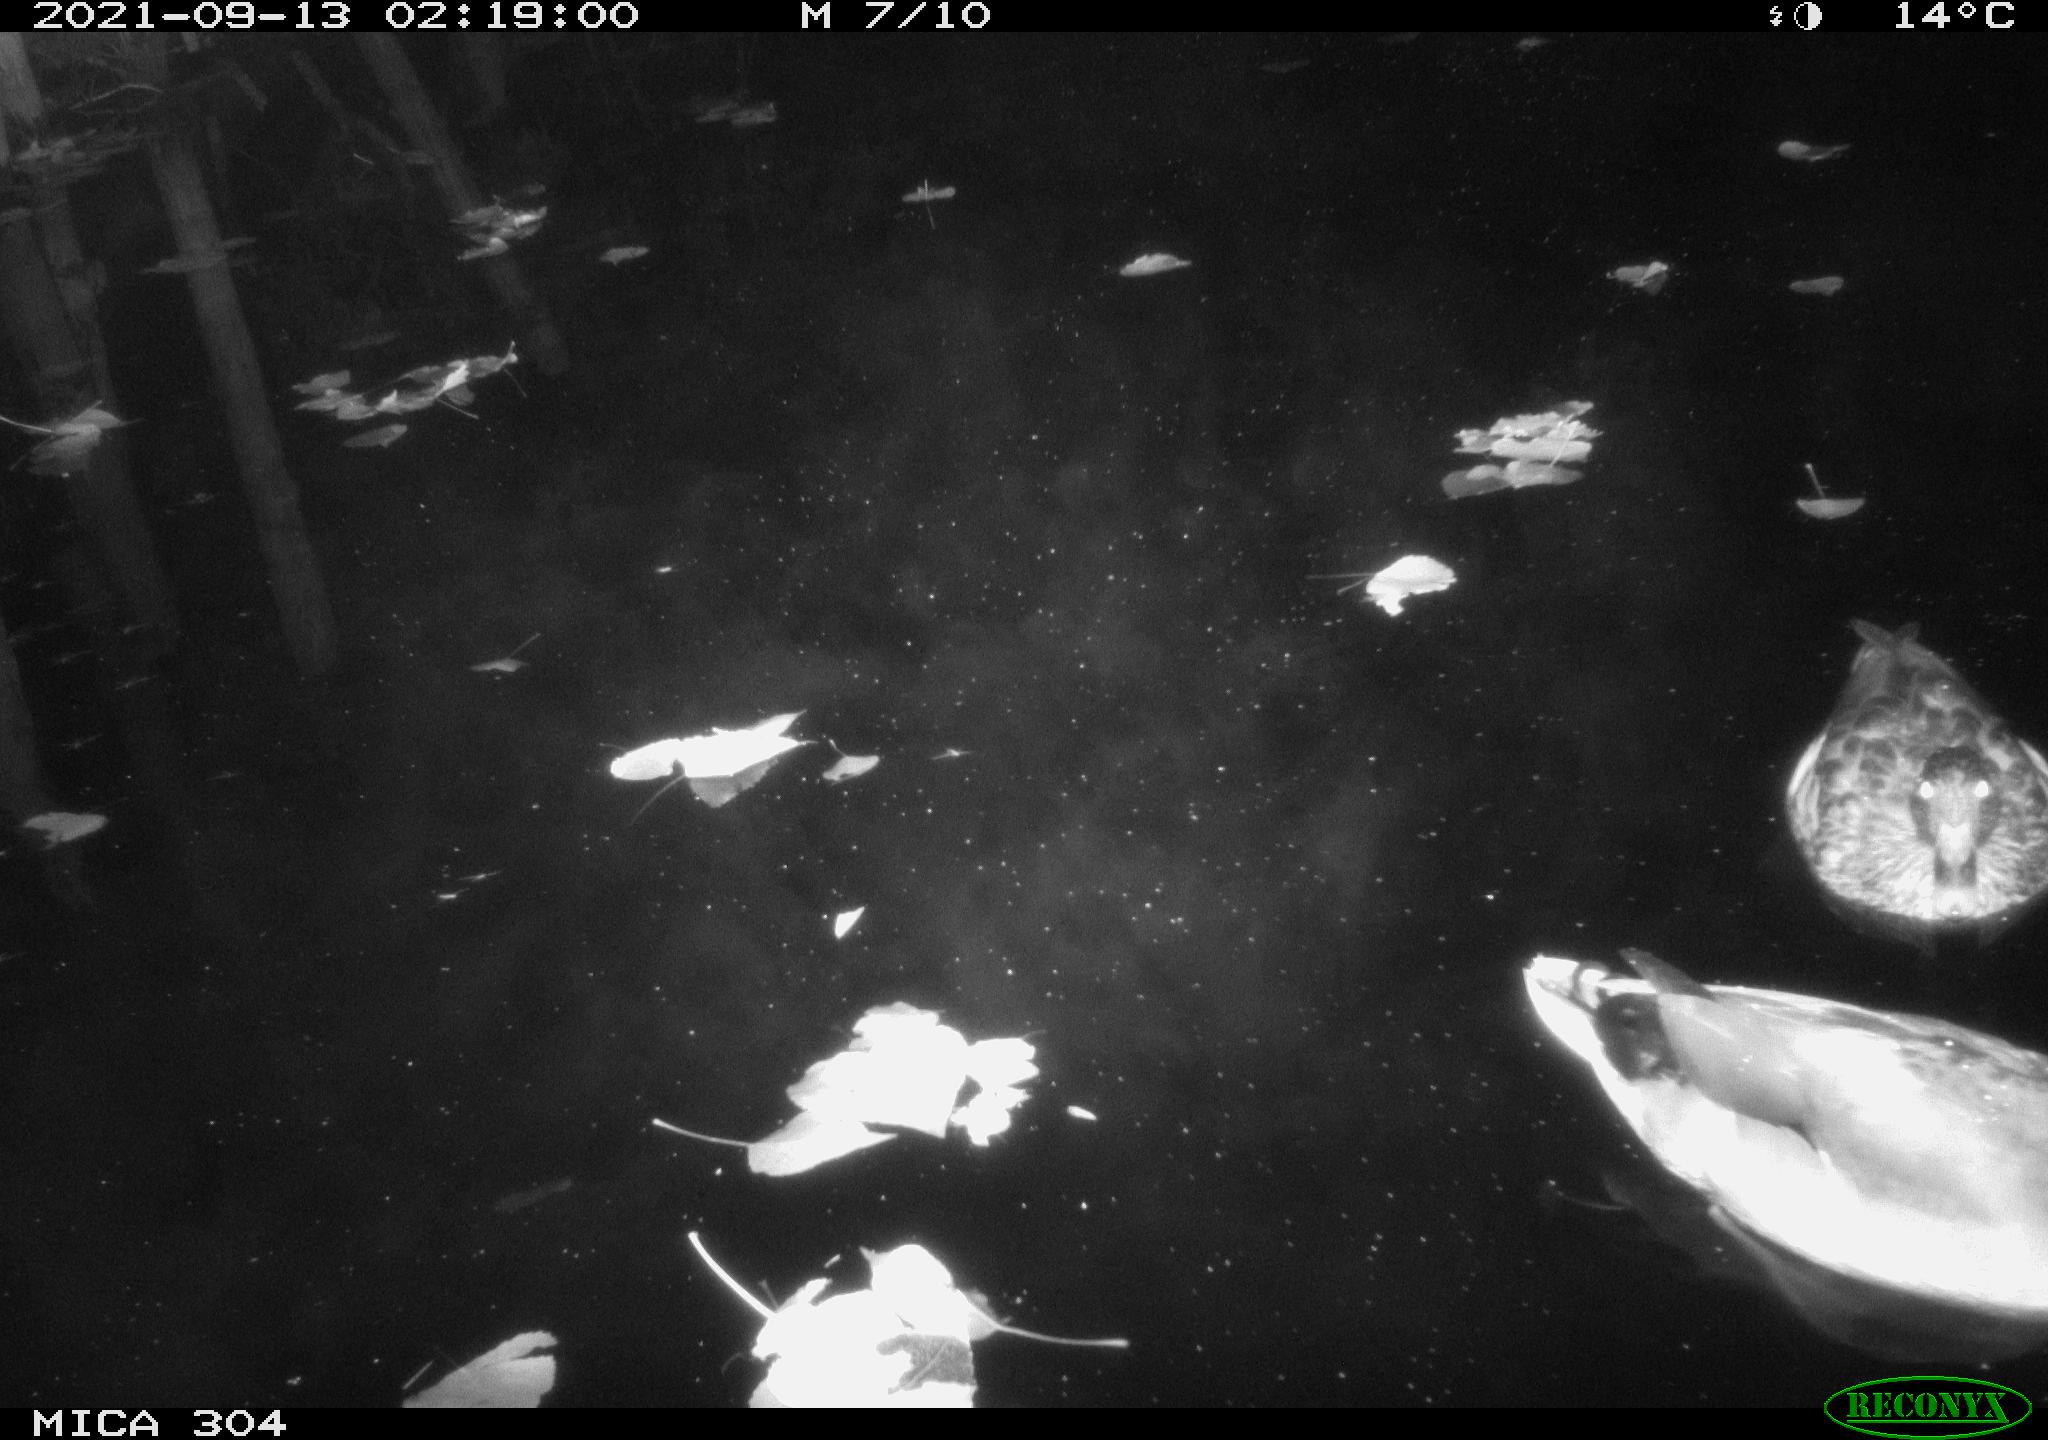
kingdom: Animalia
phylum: Chordata
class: Aves
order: Anseriformes
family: Anatidae
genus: Anas
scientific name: Anas platyrhynchos
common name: Mallard
